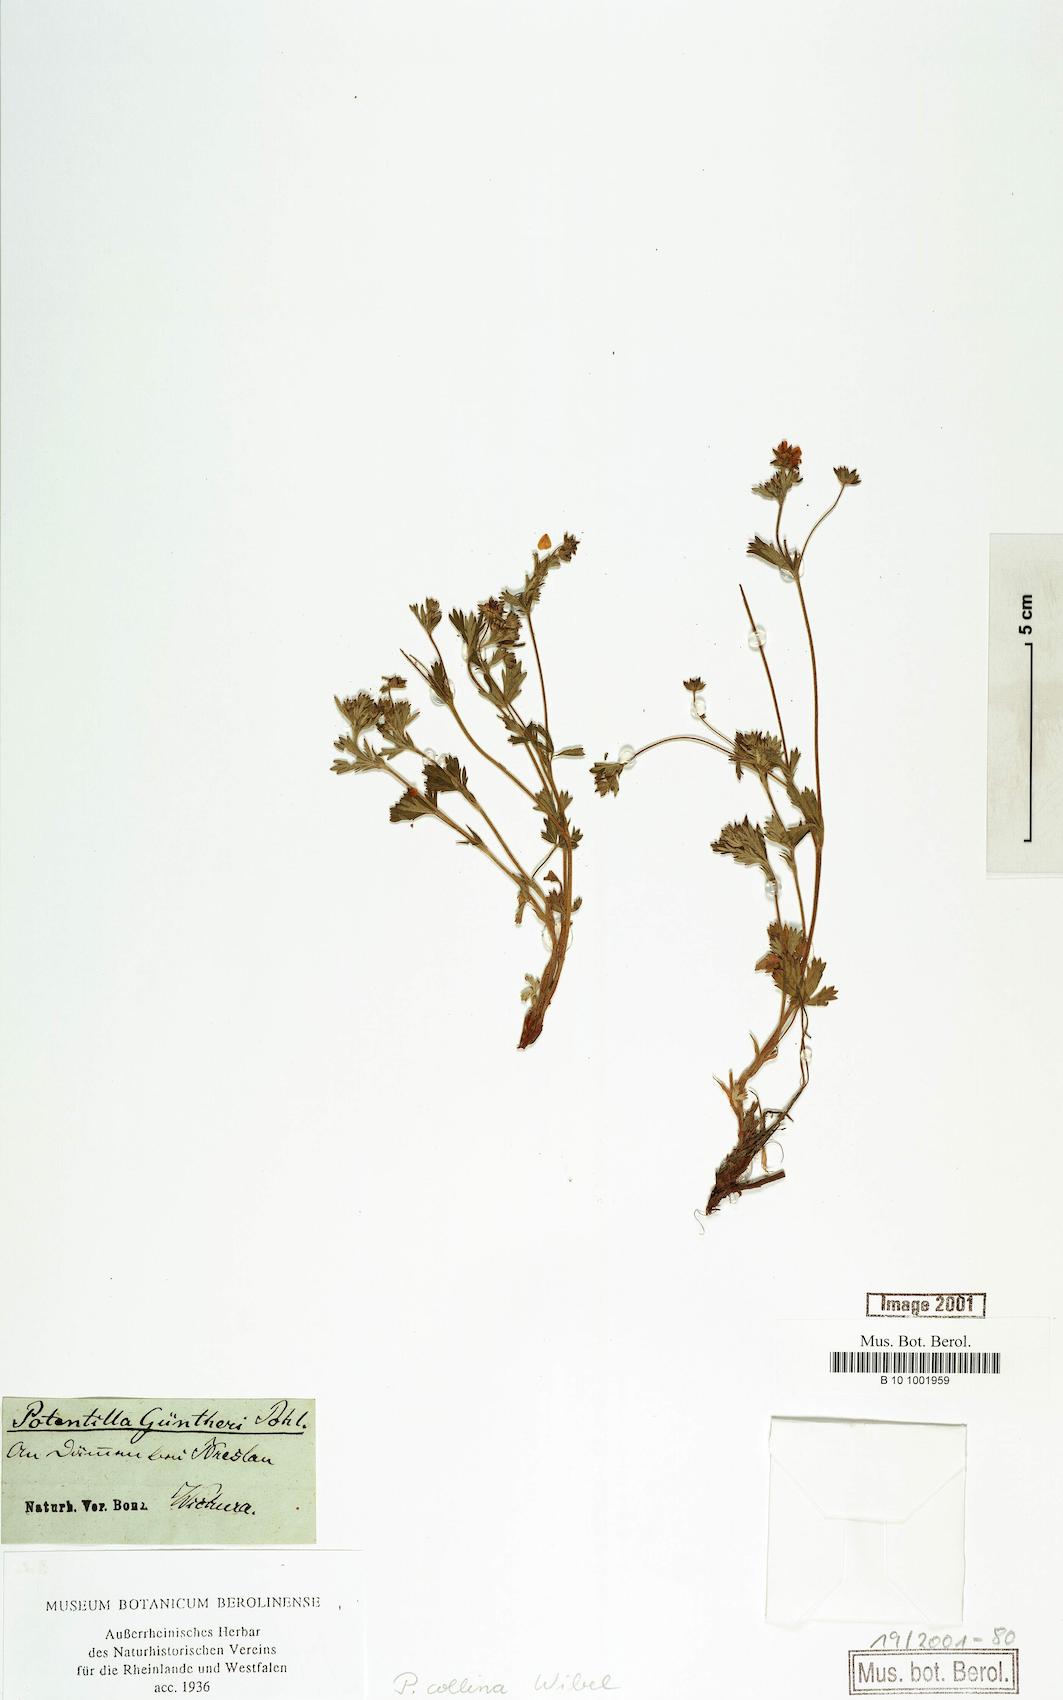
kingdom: Plantae
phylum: Tracheophyta
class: Magnoliopsida
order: Rosales
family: Rosaceae
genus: Potentilla
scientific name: Potentilla collina
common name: Palmleaf cinquefoil
